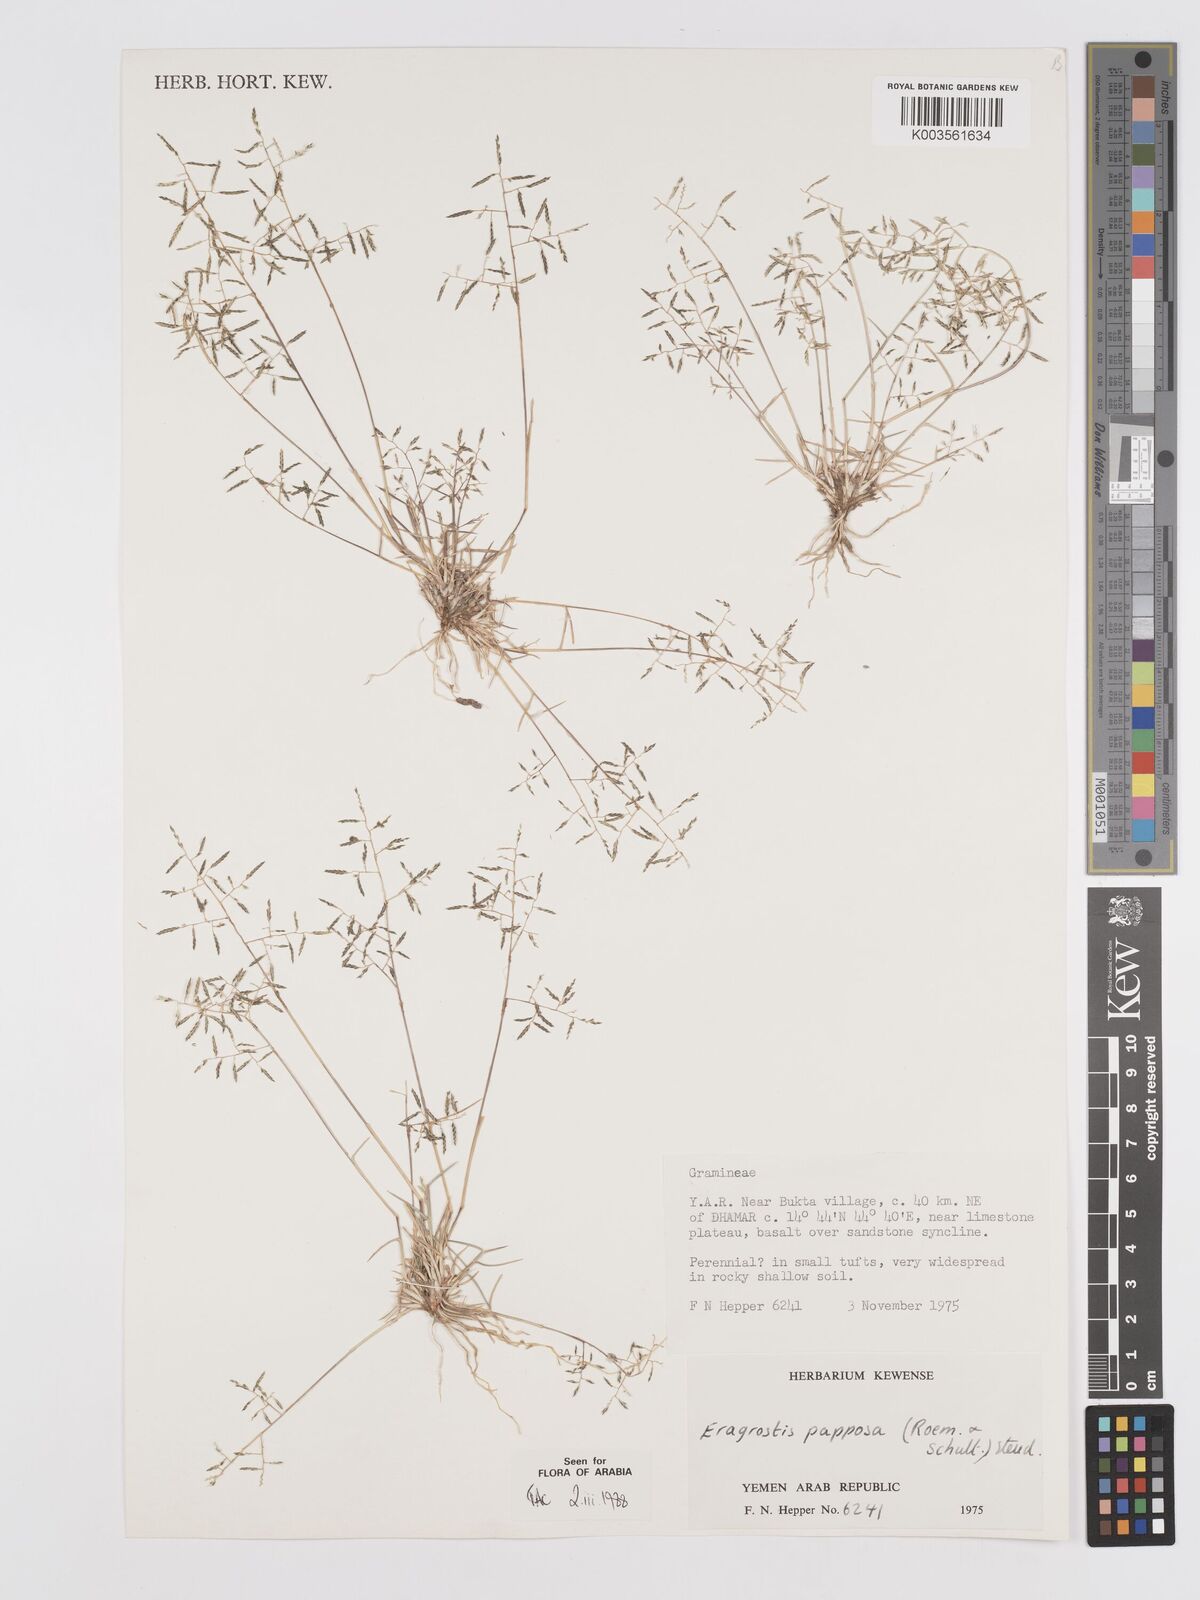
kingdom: Plantae
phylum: Tracheophyta
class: Liliopsida
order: Poales
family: Poaceae
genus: Eragrostis
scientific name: Eragrostis papposa
